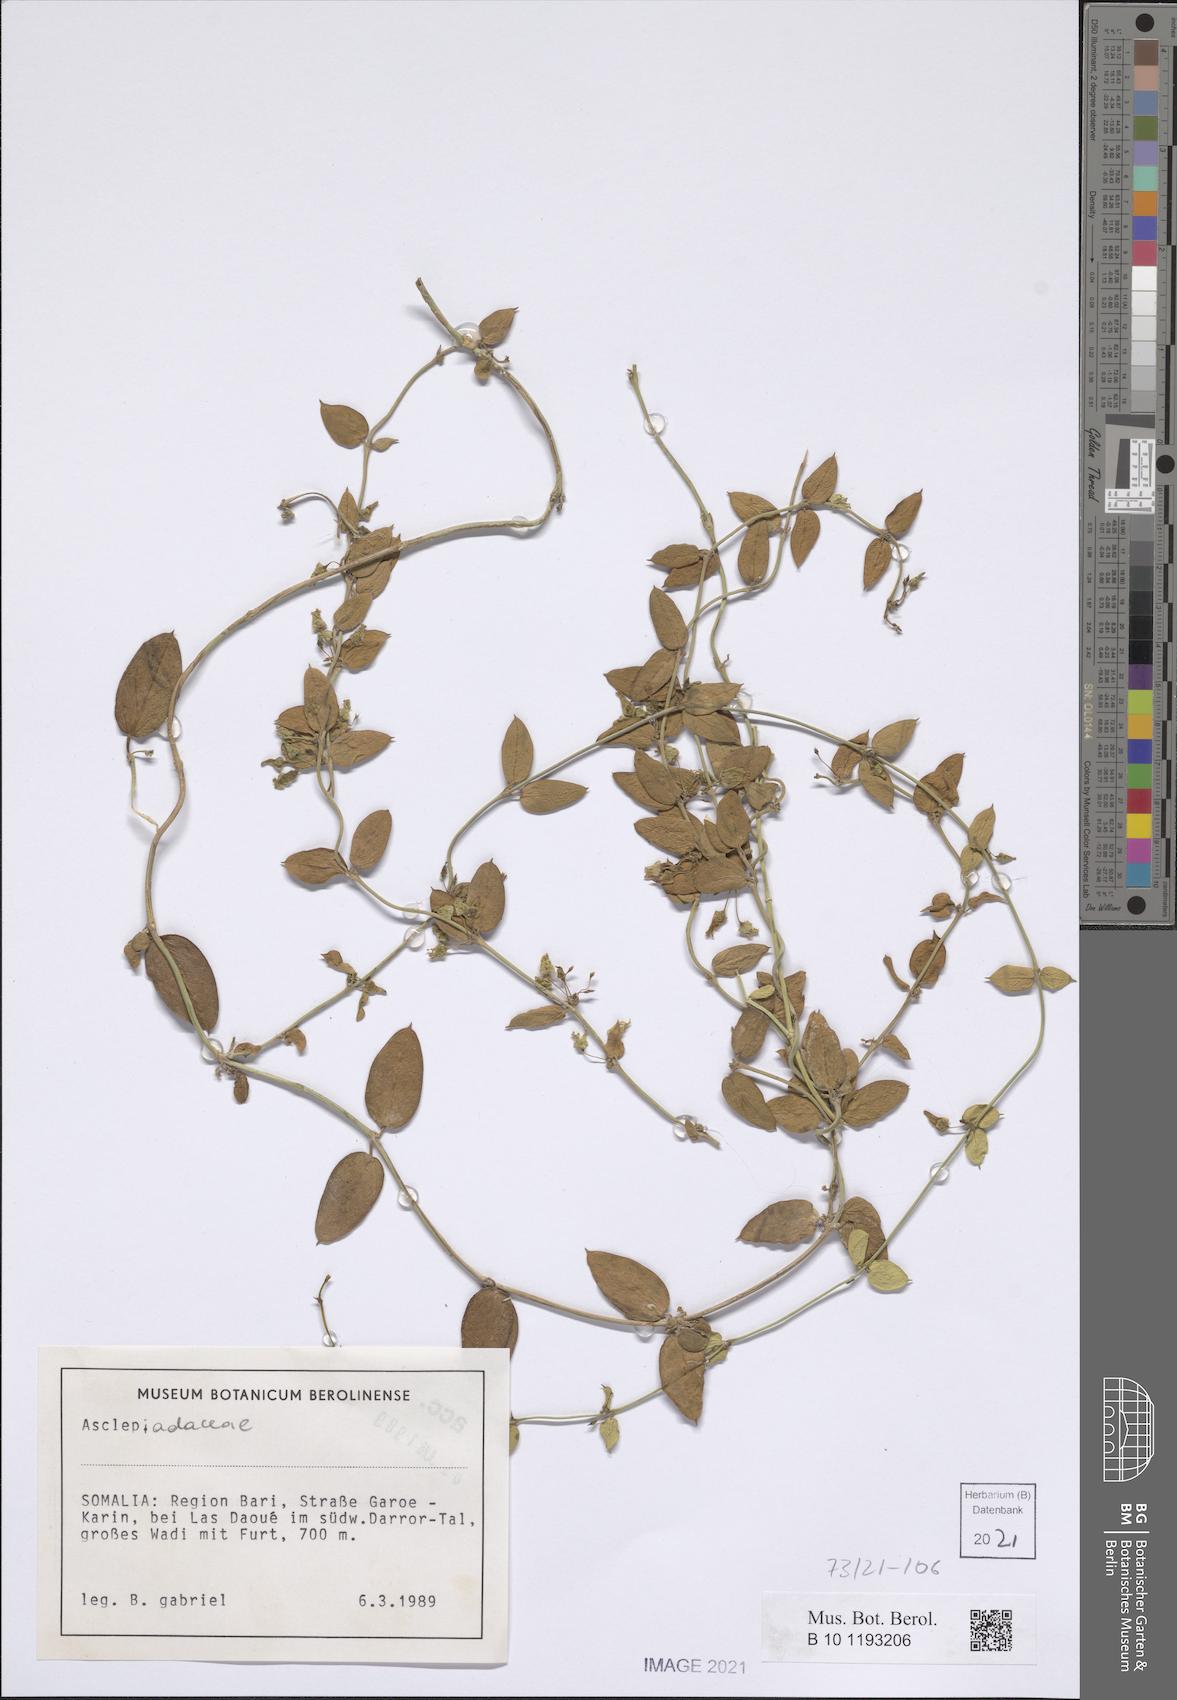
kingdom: Plantae
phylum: Tracheophyta
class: Magnoliopsida
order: Gentianales
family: Apocynaceae
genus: Pentatropis
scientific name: Pentatropis nivalis
